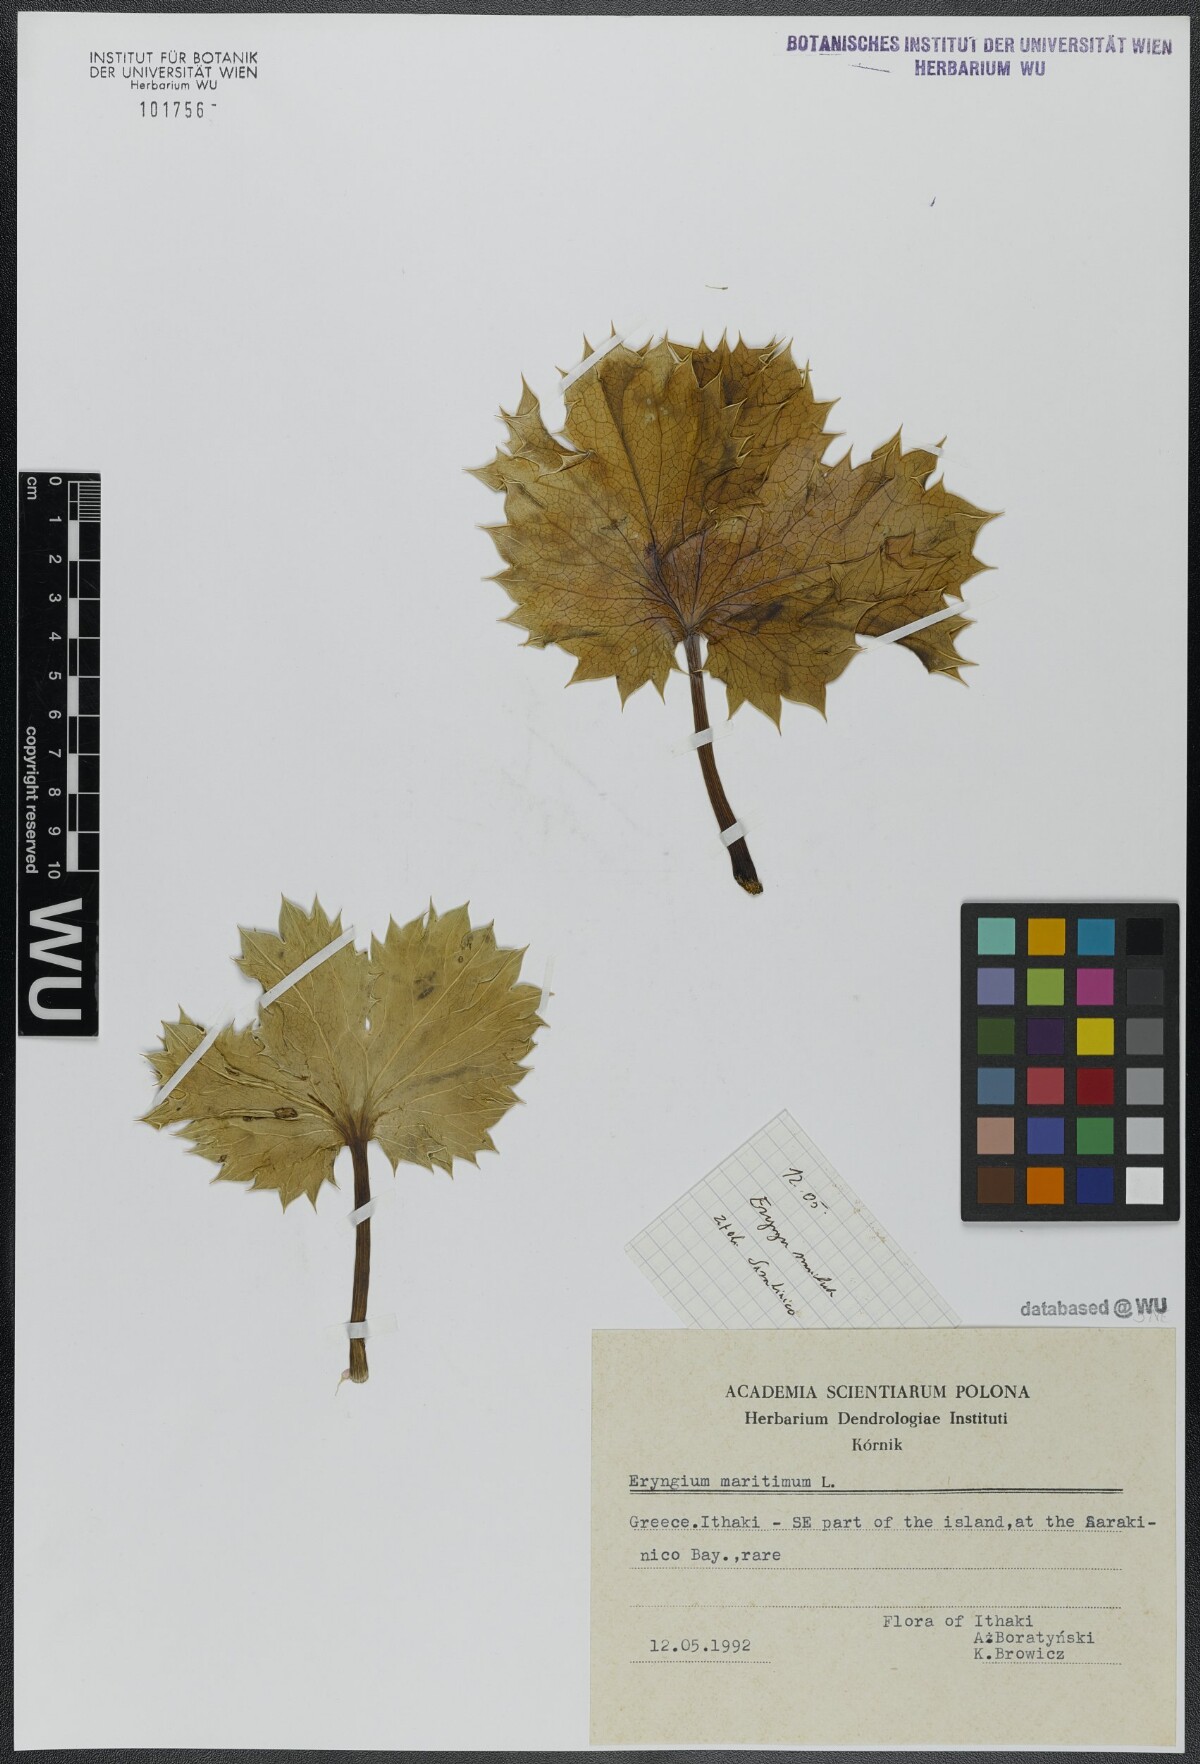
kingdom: Plantae
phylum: Tracheophyta
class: Magnoliopsida
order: Apiales
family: Apiaceae
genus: Eryngium
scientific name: Eryngium maritimum
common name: Sea-holly
